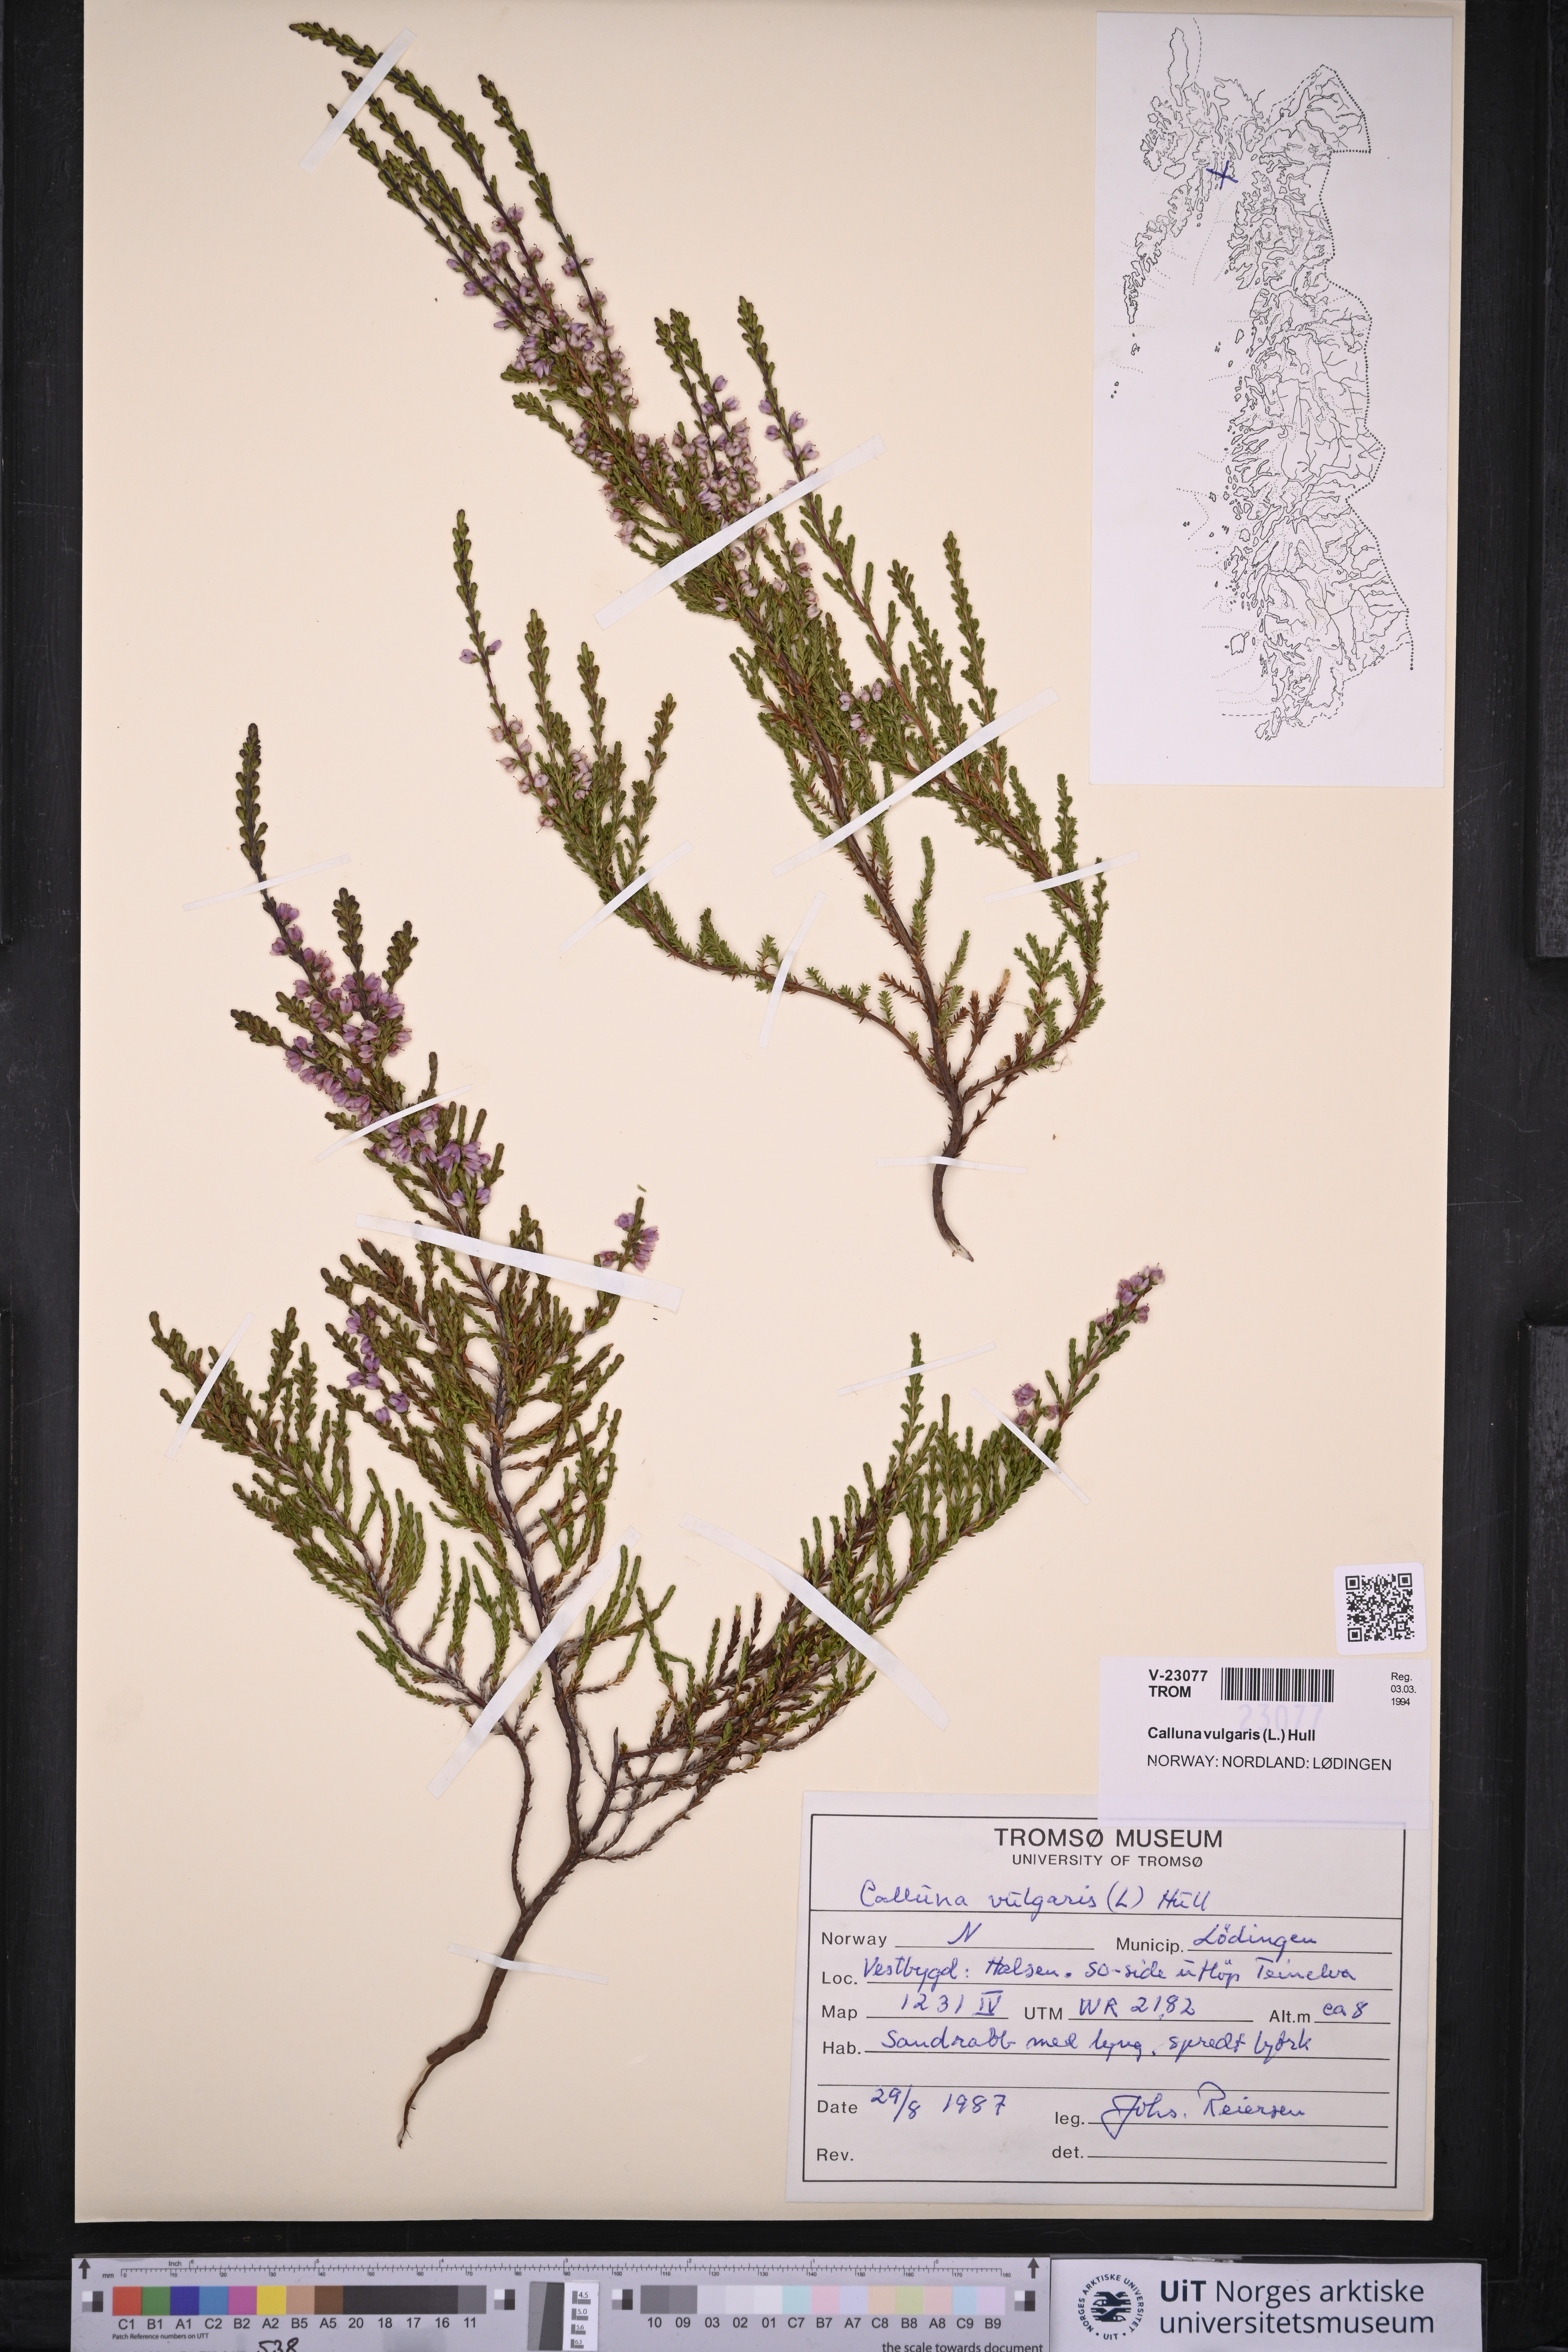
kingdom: Plantae
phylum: Tracheophyta
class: Magnoliopsida
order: Ericales
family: Ericaceae
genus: Calluna
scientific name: Calluna vulgaris
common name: Heather
